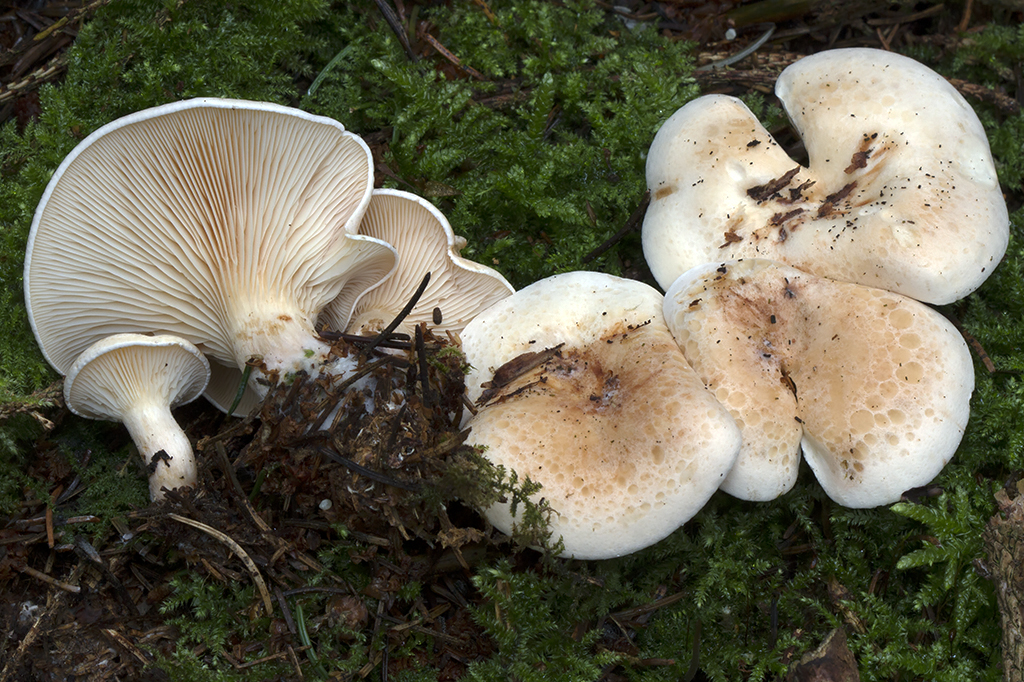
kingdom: Fungi
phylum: Basidiomycota
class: Agaricomycetes
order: Agaricales
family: Tricholomataceae
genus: Paralepista
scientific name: Paralepista gilva
